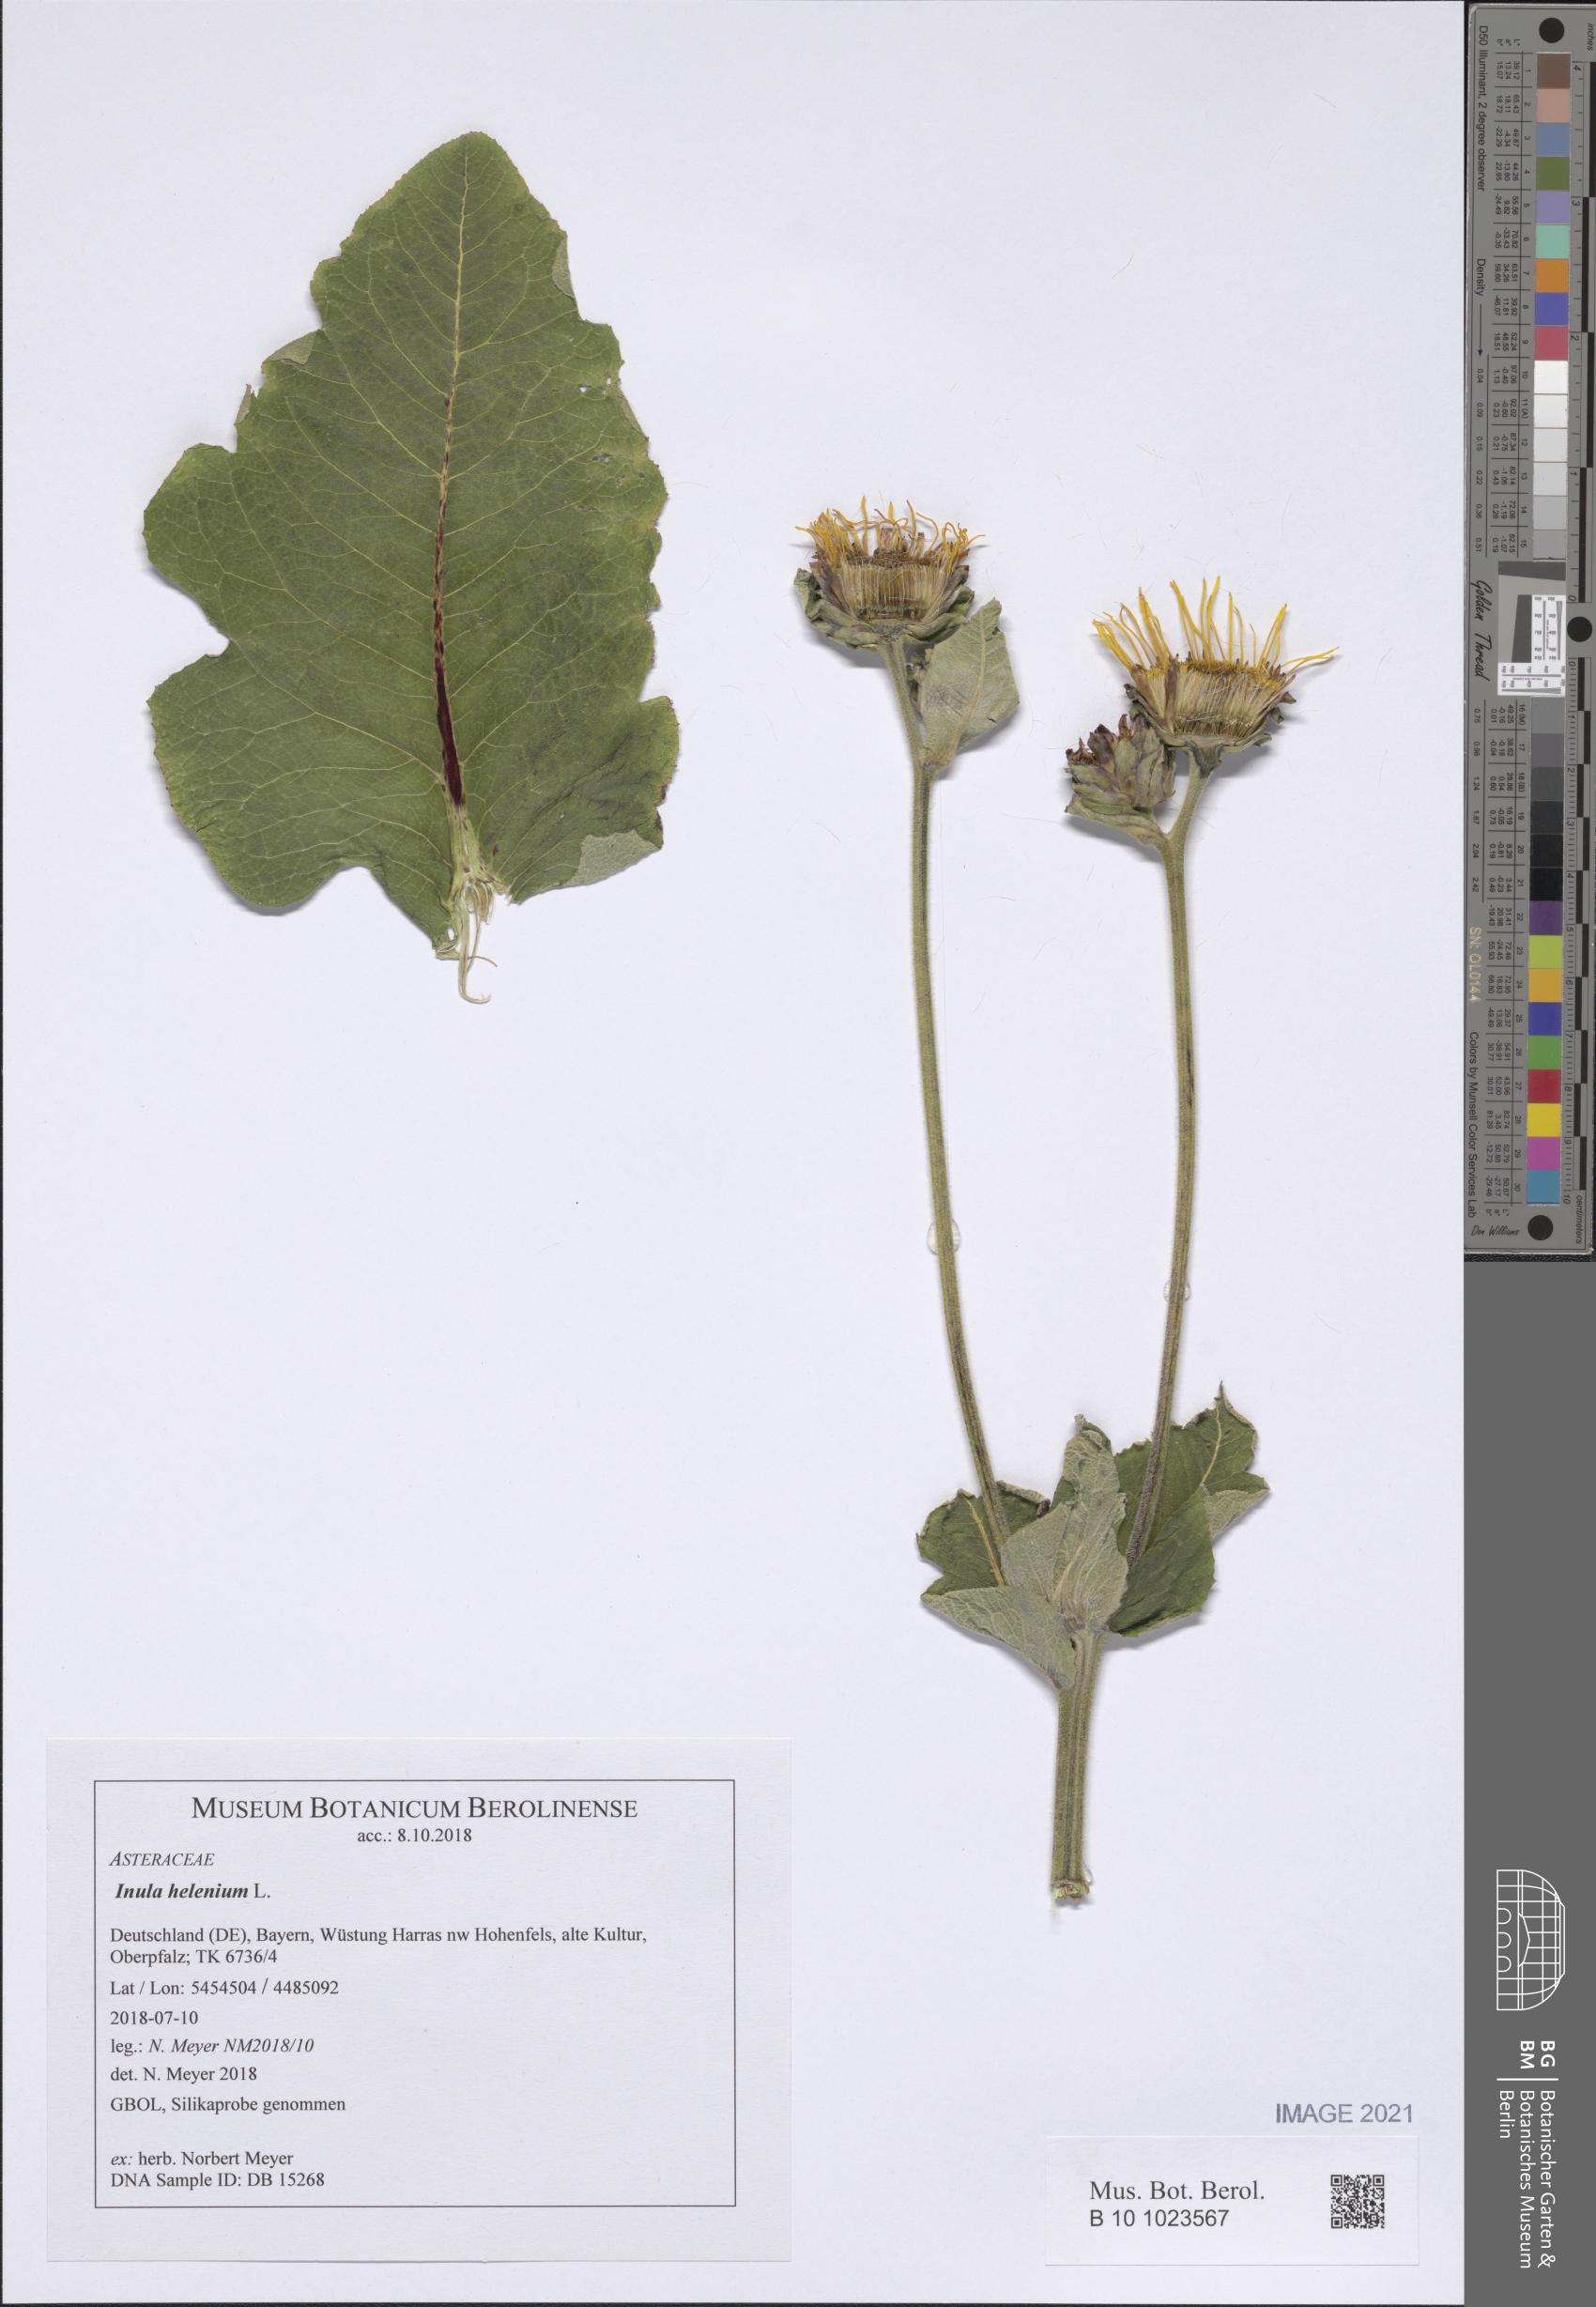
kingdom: Plantae
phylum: Tracheophyta
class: Magnoliopsida
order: Asterales
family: Asteraceae
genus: Inula
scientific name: Inula helenium
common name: Elecampane
